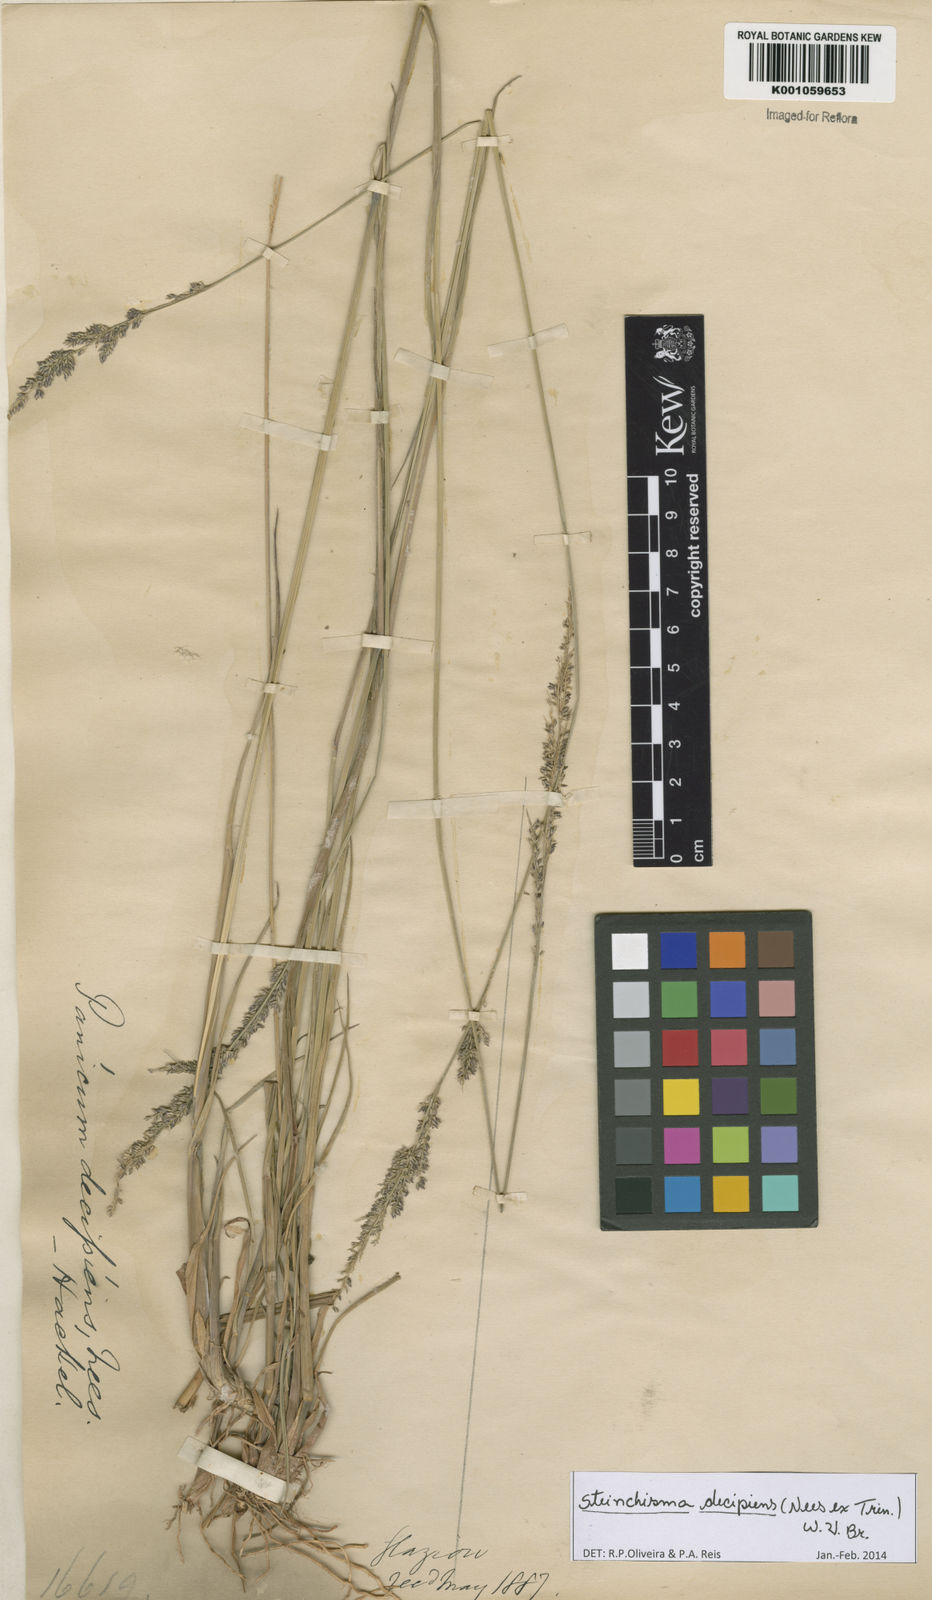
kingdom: Plantae
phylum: Tracheophyta
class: Liliopsida
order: Poales
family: Poaceae
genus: Steinchisma
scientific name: Steinchisma decipiens
